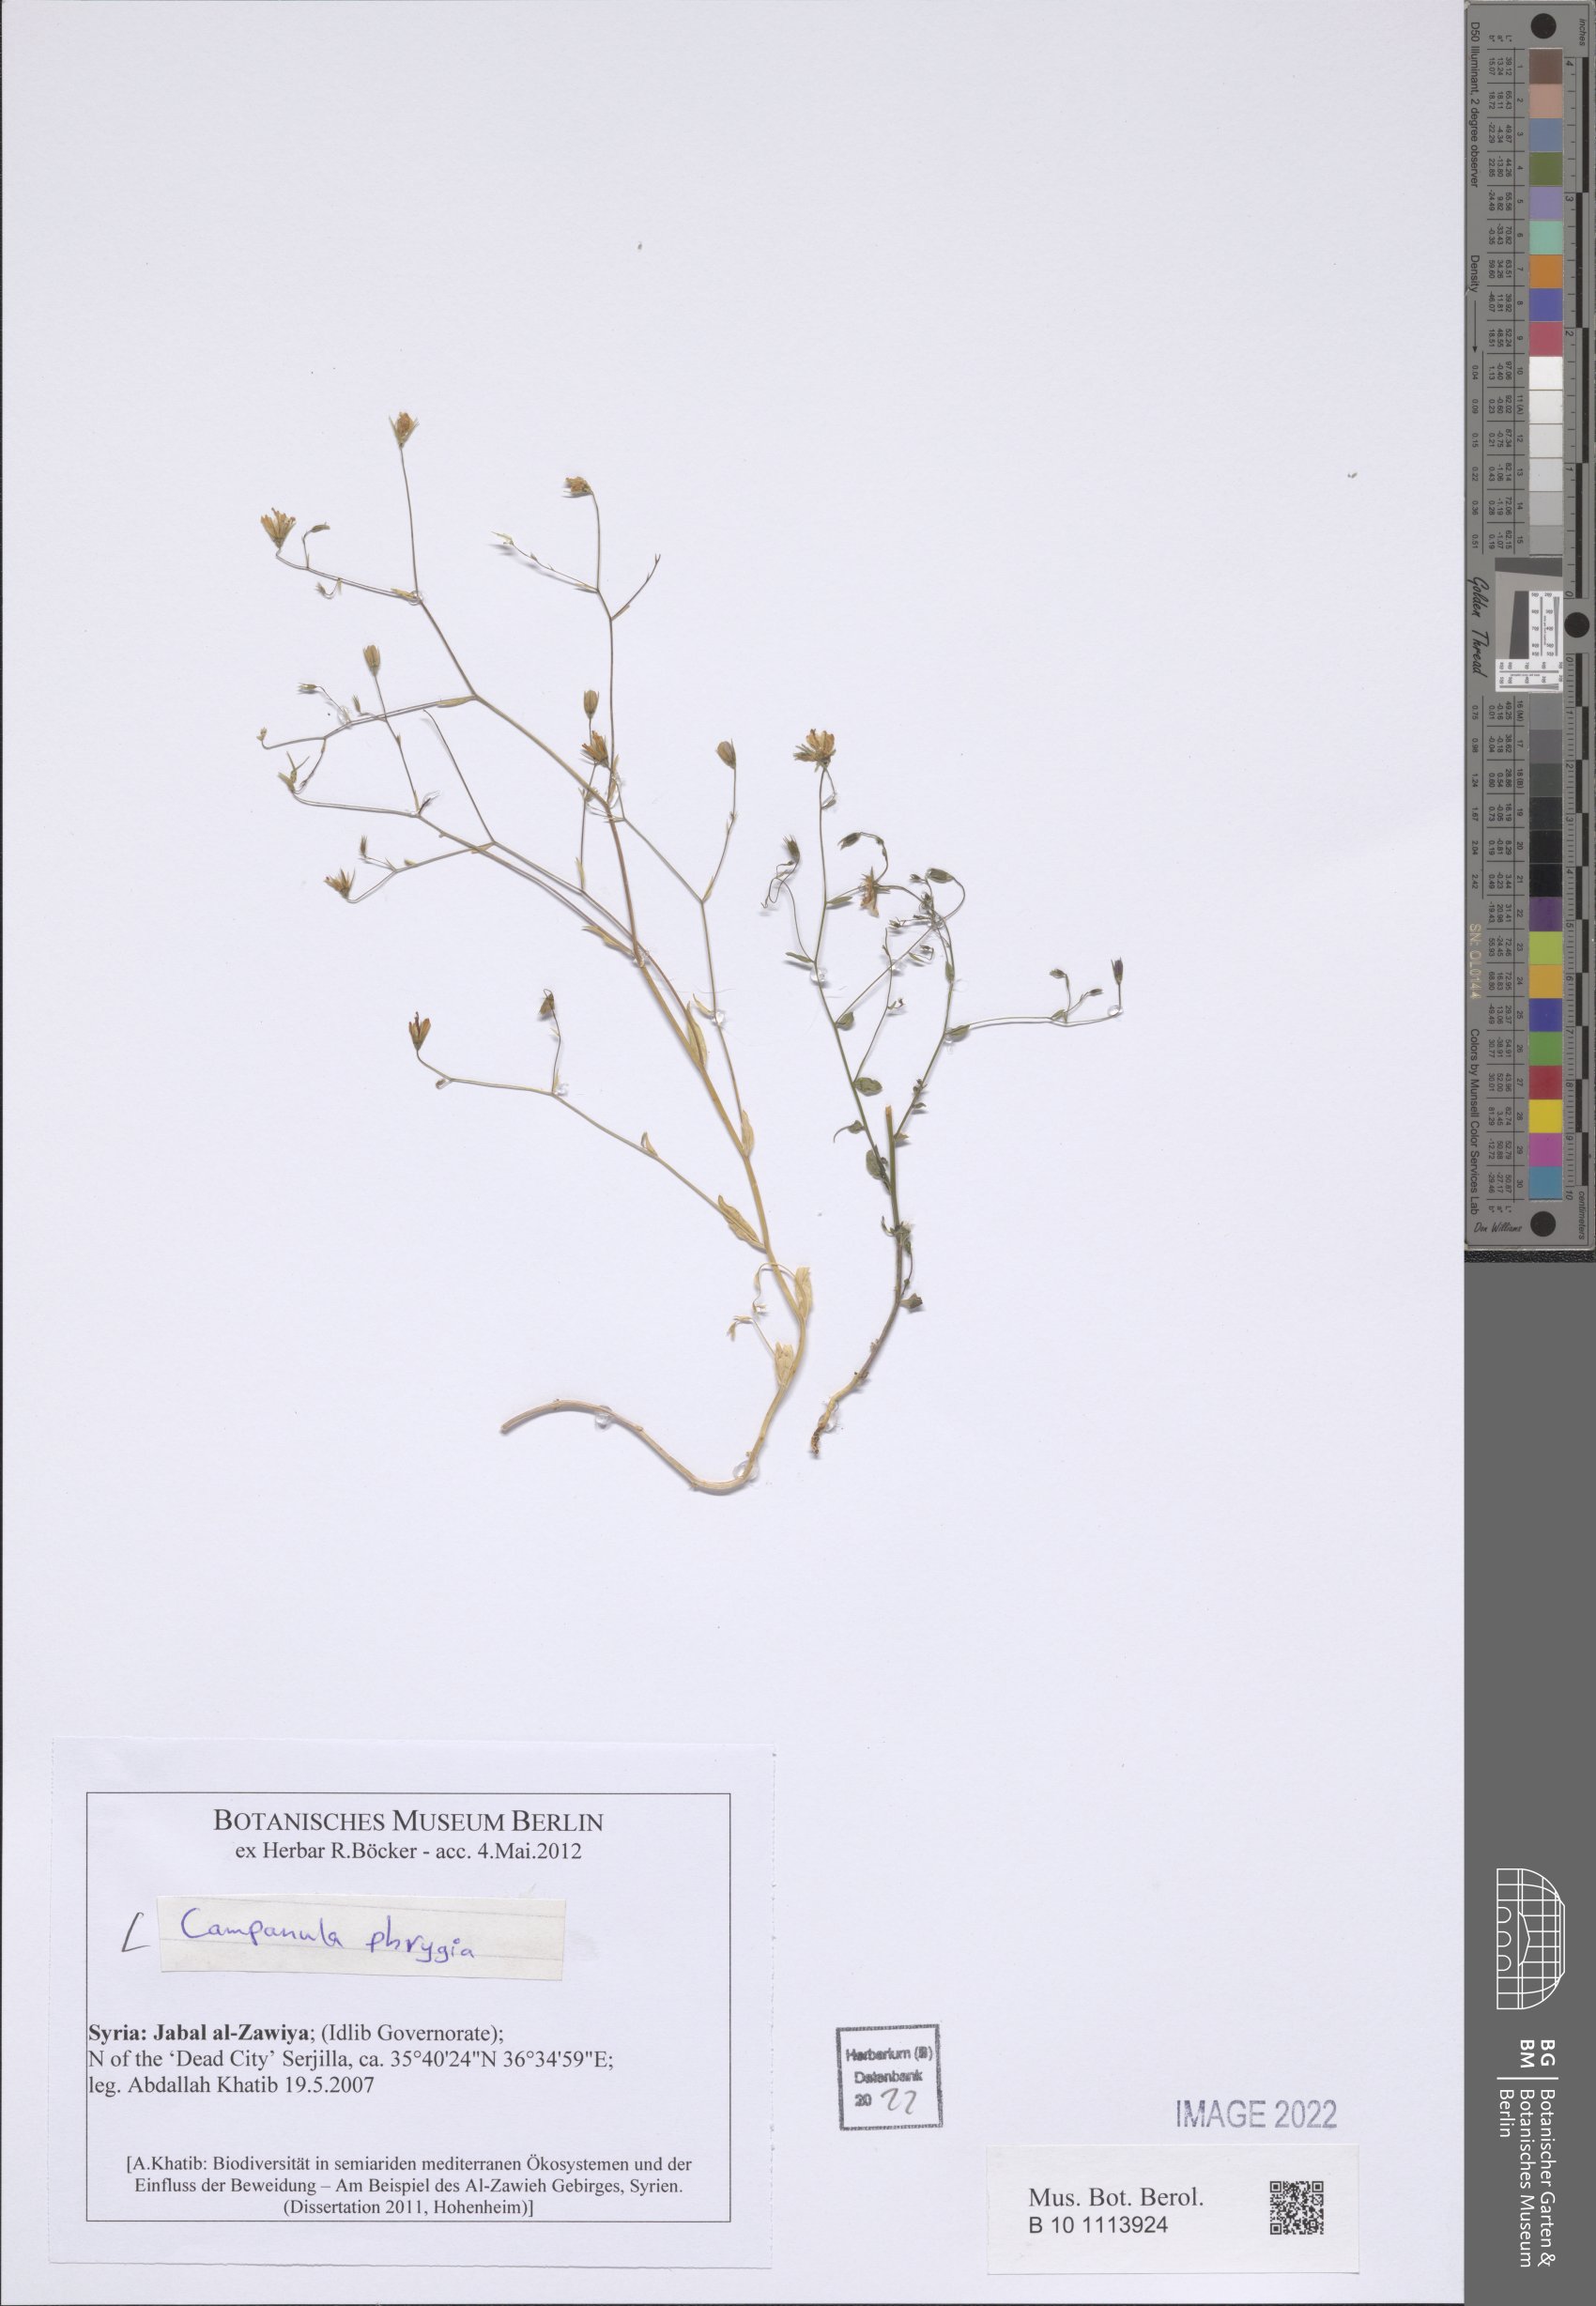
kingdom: Plantae
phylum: Tracheophyta
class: Magnoliopsida
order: Asterales
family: Campanulaceae
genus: Campanula
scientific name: Campanula phrygia
